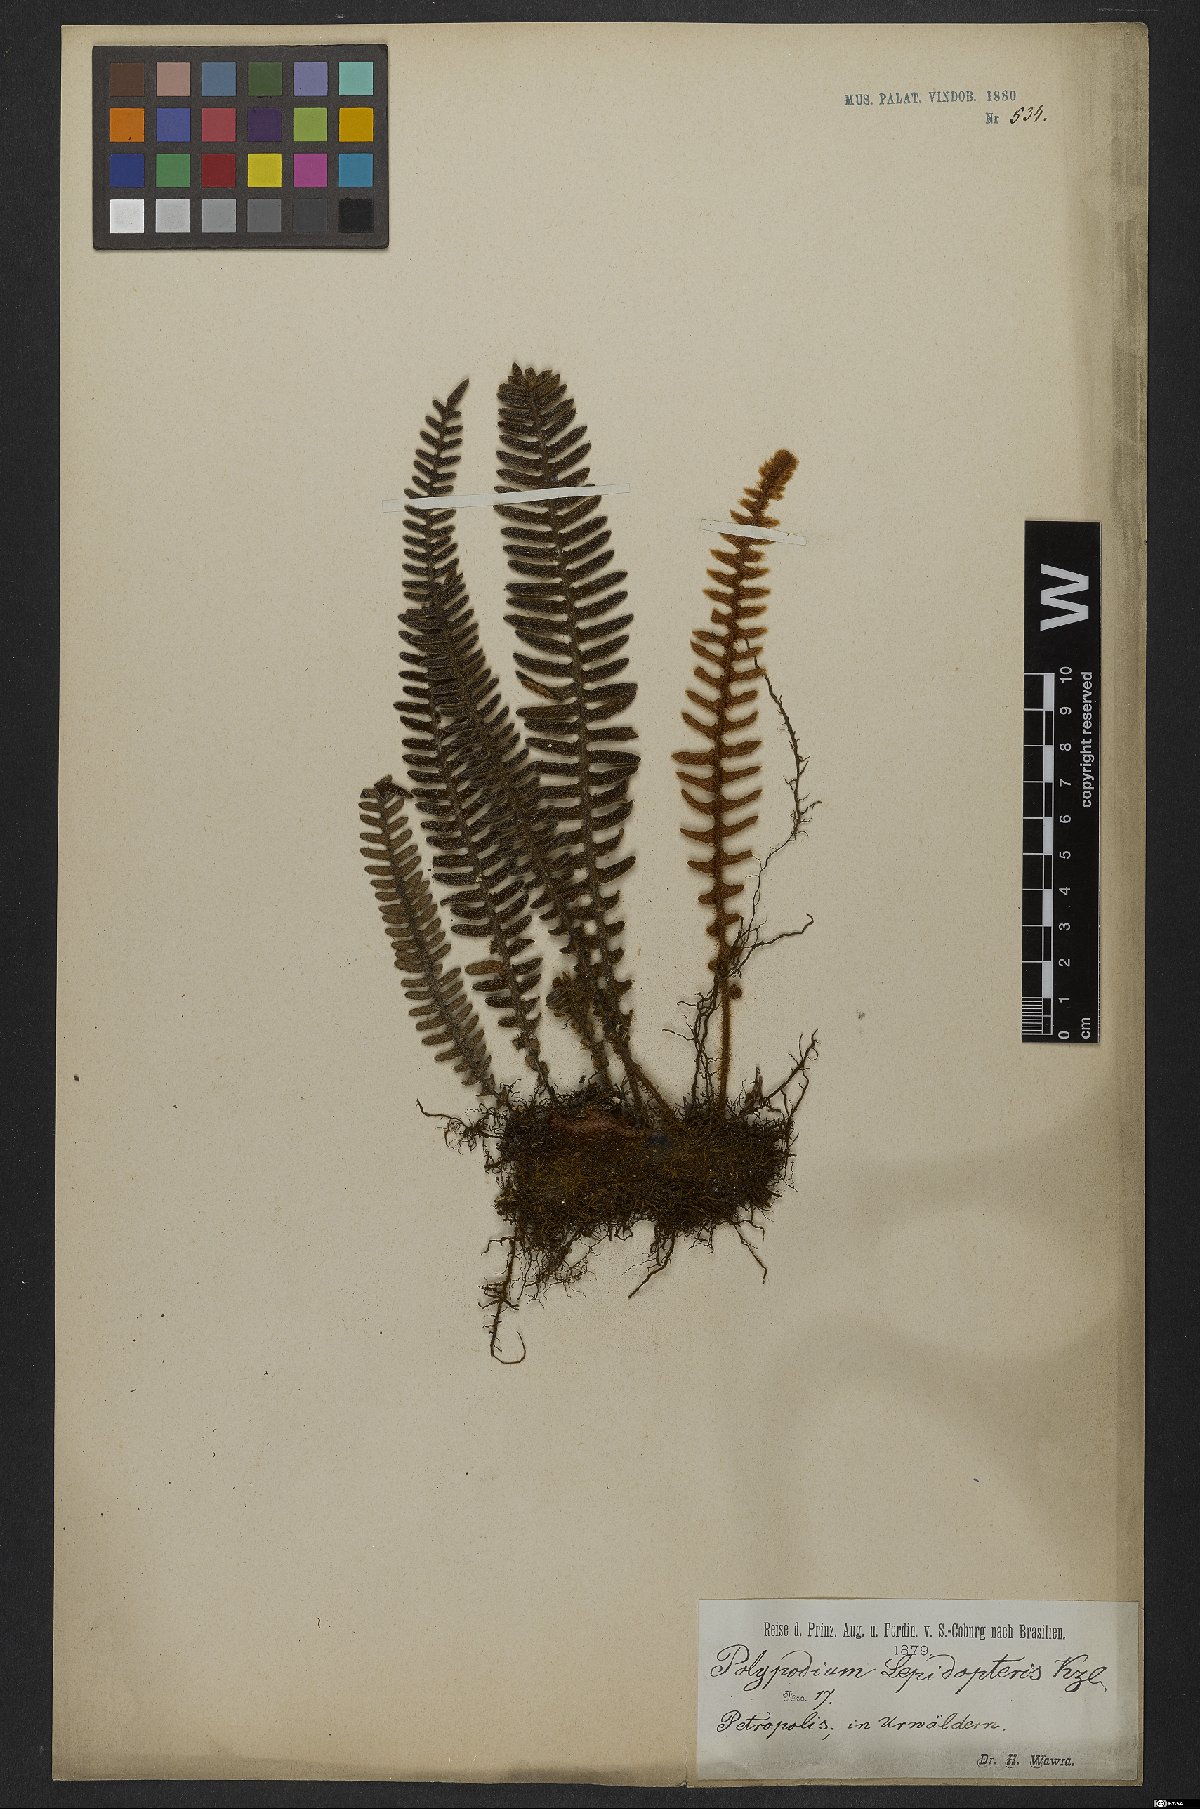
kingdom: Plantae
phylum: Tracheophyta
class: Polypodiopsida
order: Polypodiales
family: Polypodiaceae
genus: Pleopeltis
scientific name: Pleopeltis lepidopteris
